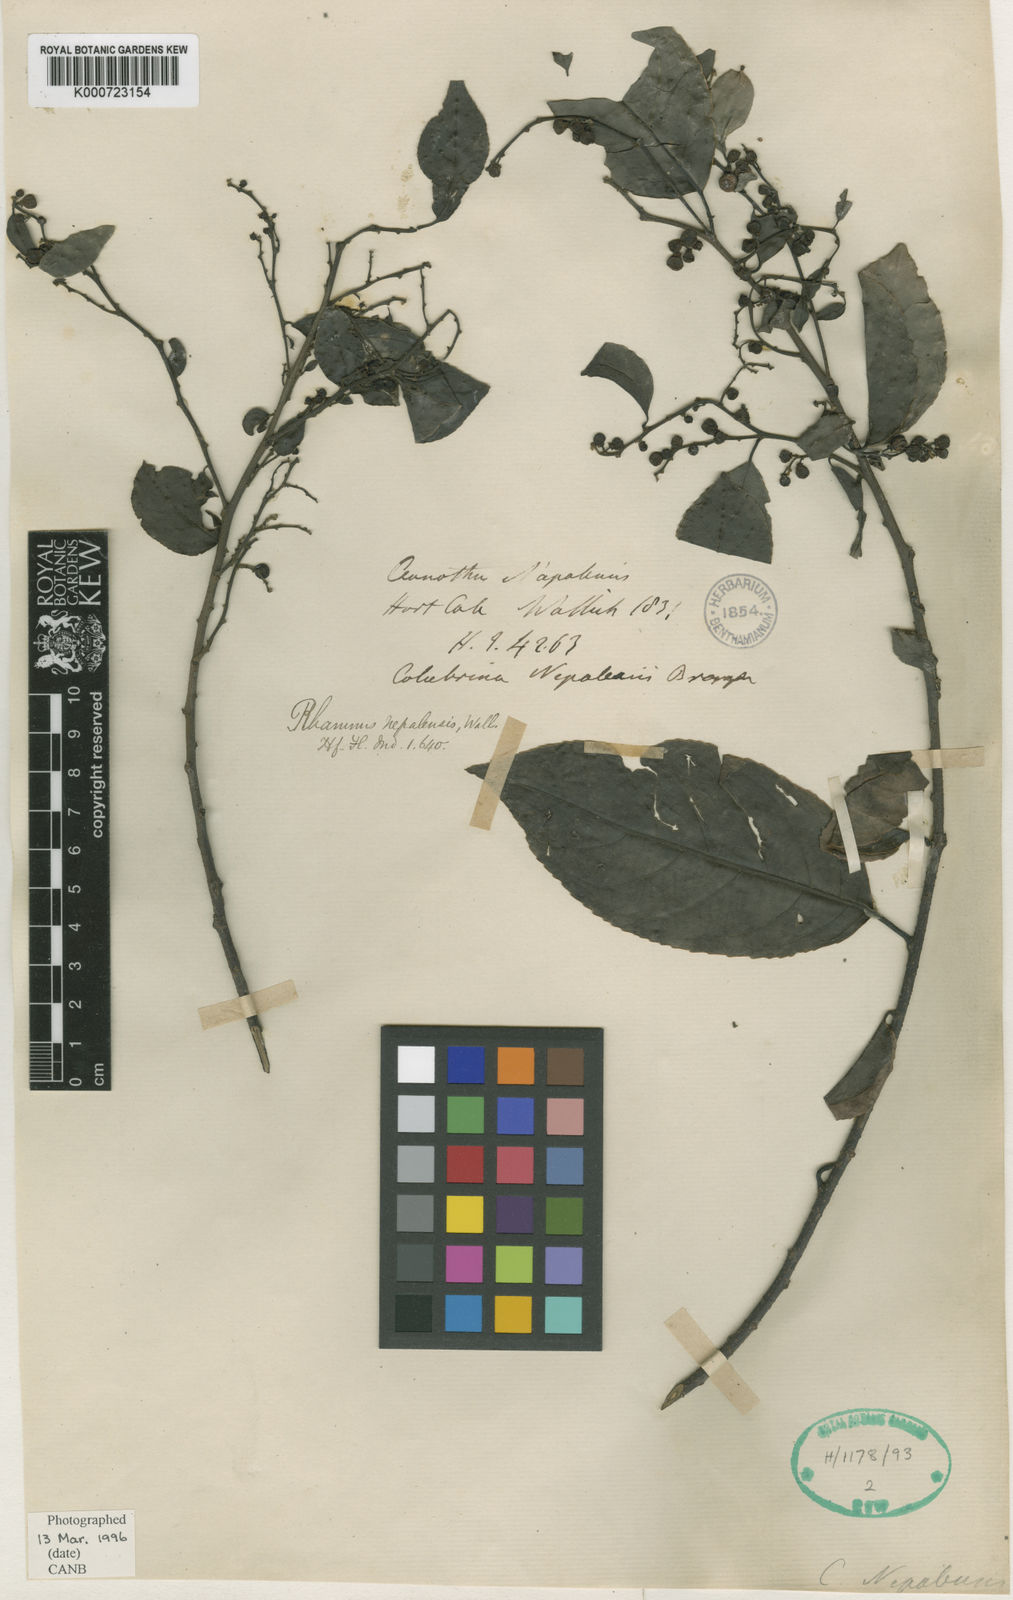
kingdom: Plantae
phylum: Tracheophyta
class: Magnoliopsida
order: Rosales
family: Rhamnaceae
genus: Rhamnus
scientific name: Rhamnus napalensis
